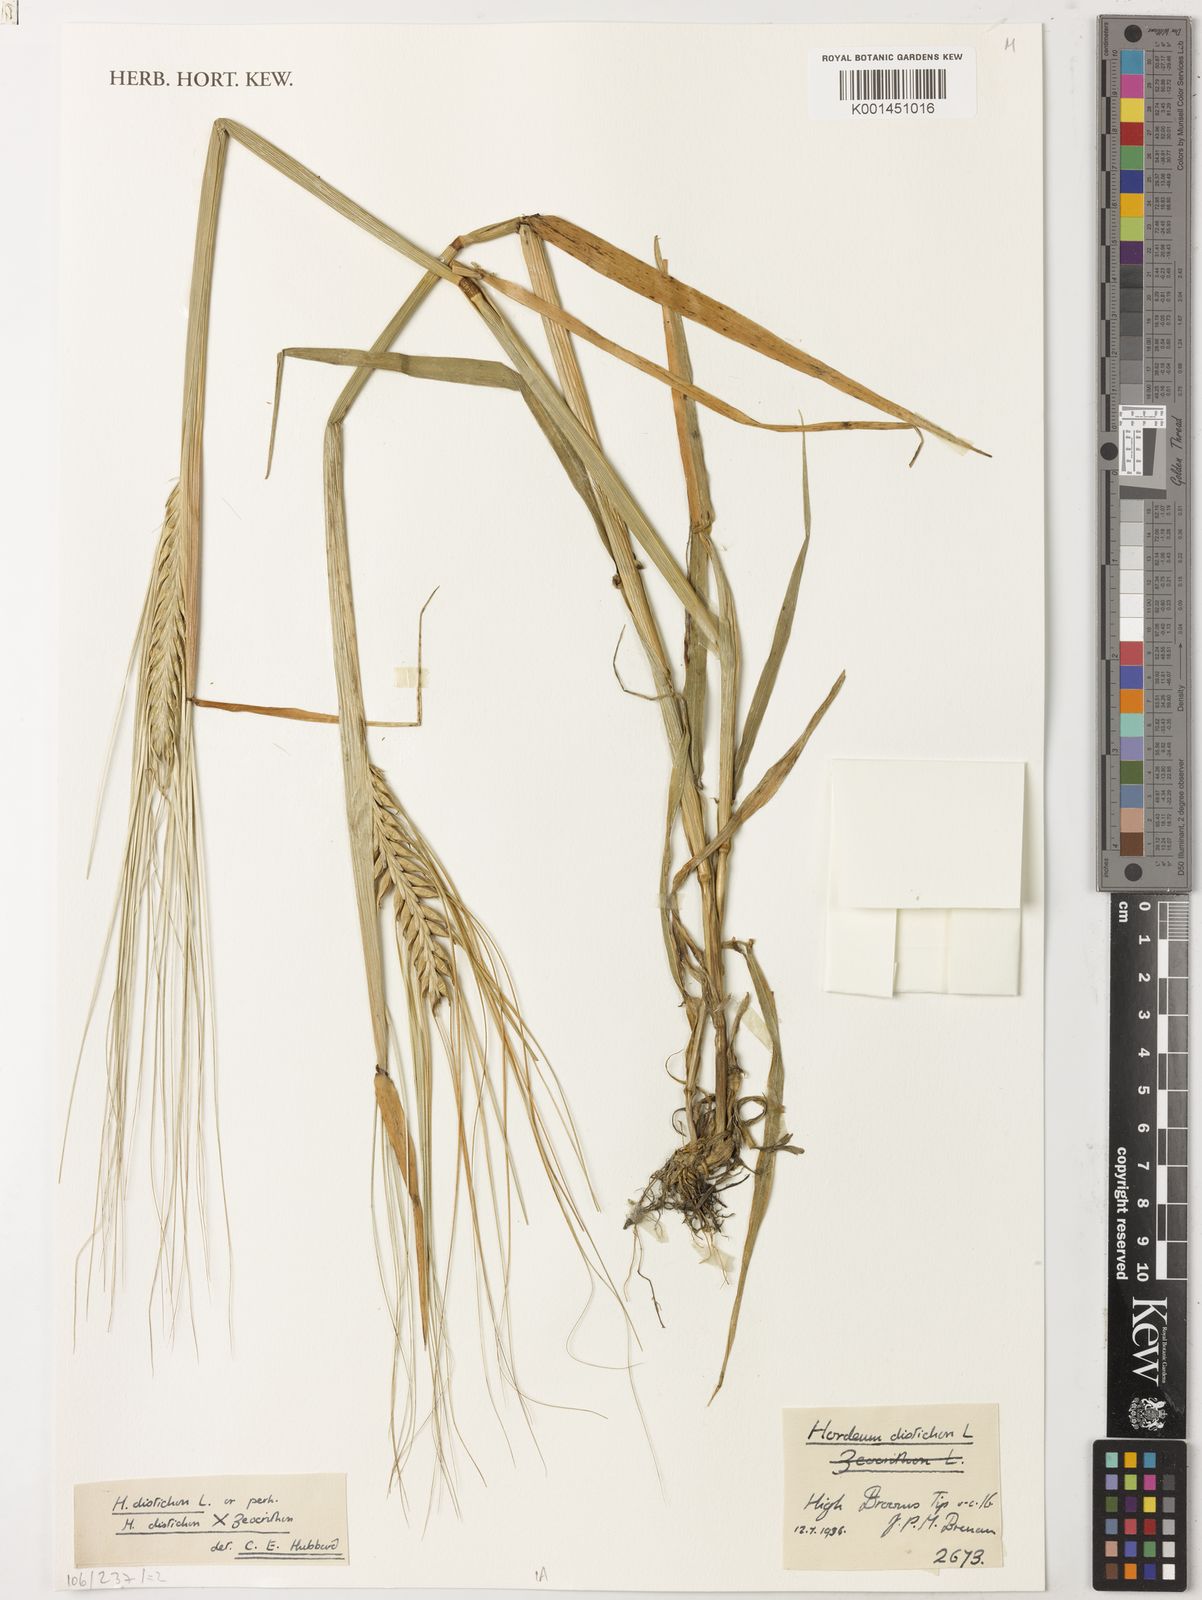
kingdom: Plantae
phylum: Tracheophyta
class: Liliopsida
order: Poales
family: Poaceae
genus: Hordeum
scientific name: Hordeum vulgare
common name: Common barley
